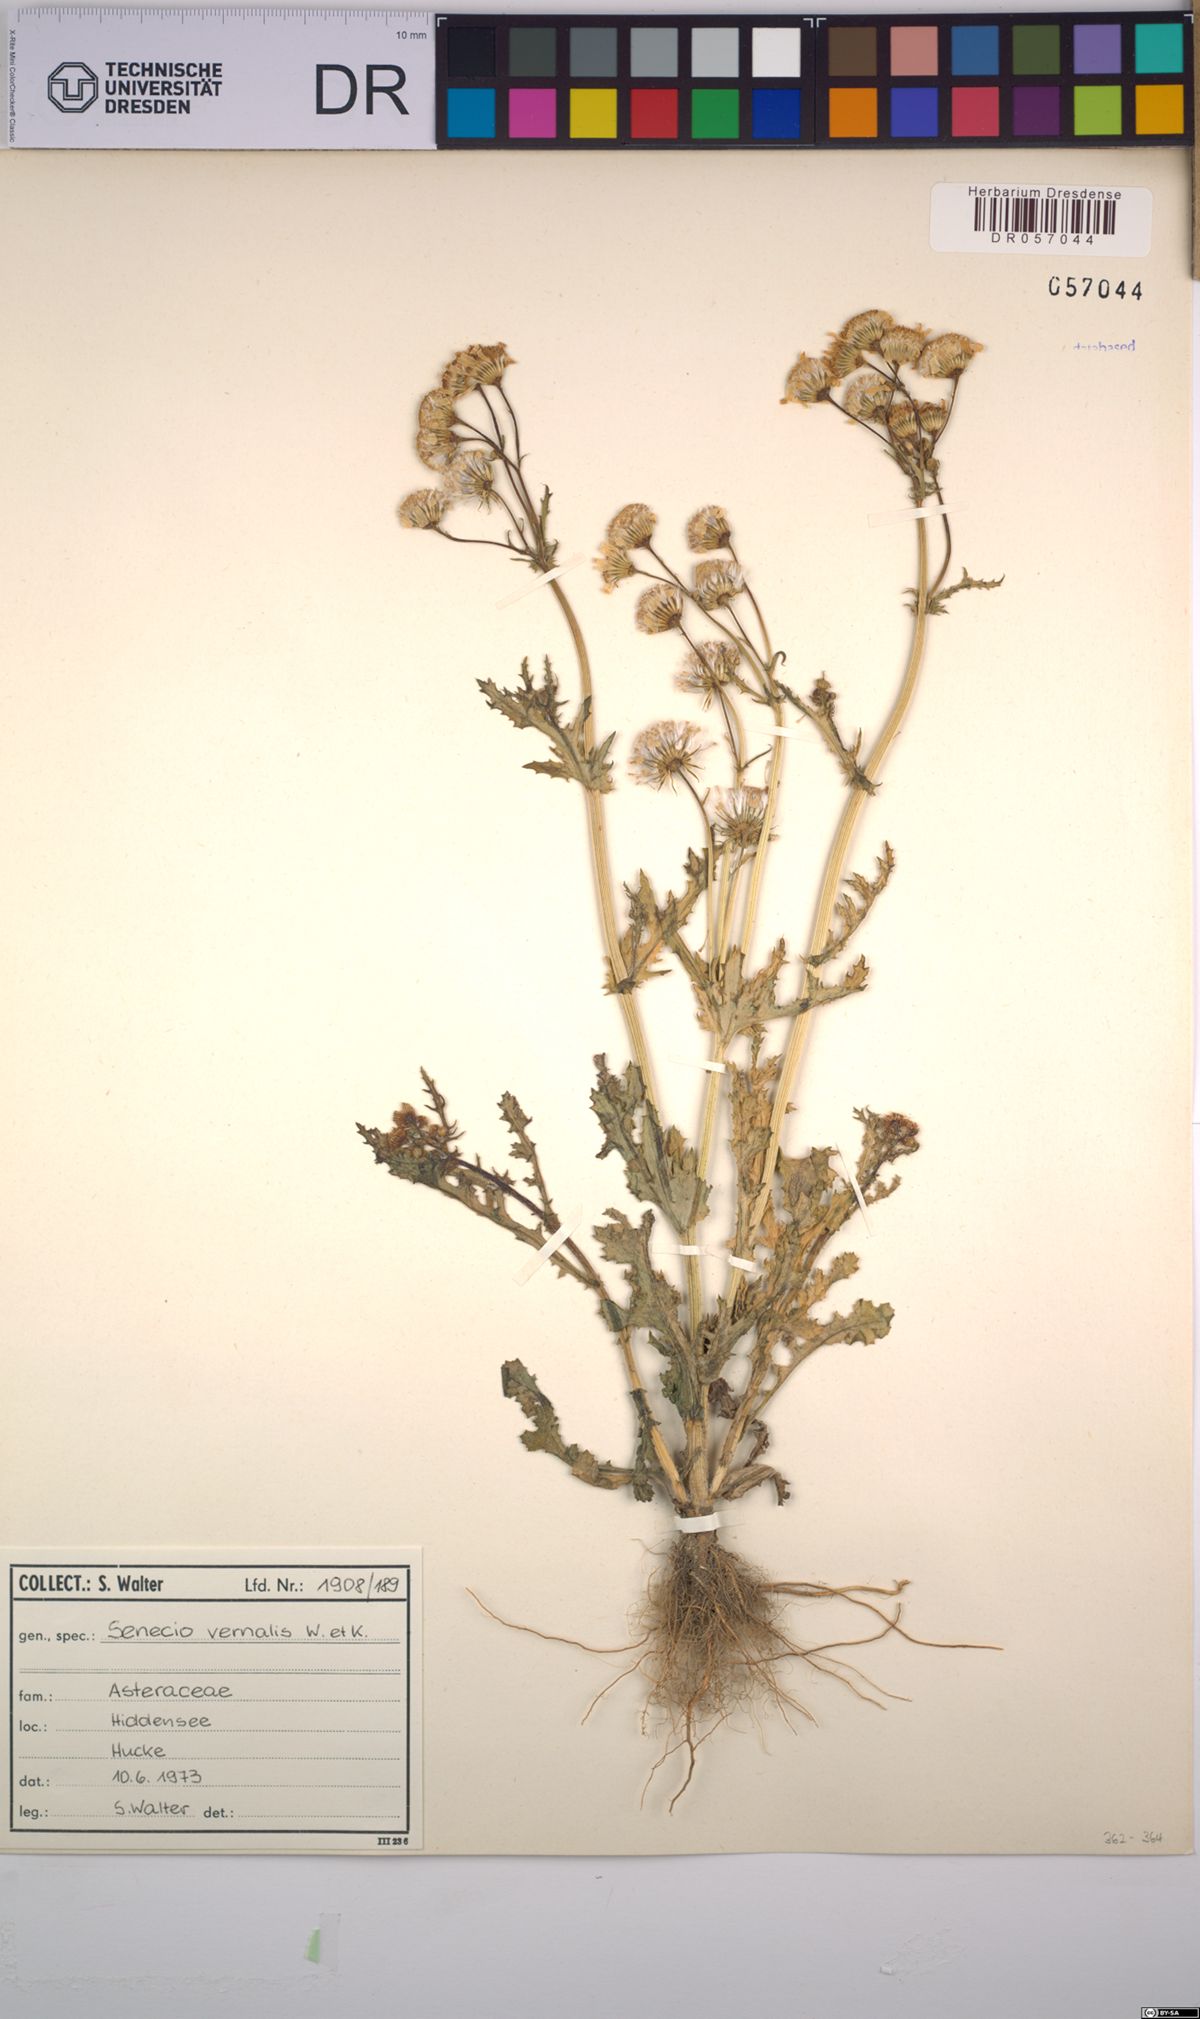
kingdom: Plantae
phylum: Tracheophyta
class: Magnoliopsida
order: Asterales
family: Asteraceae
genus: Senecio
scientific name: Senecio vernalis
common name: Eastern groundsel
